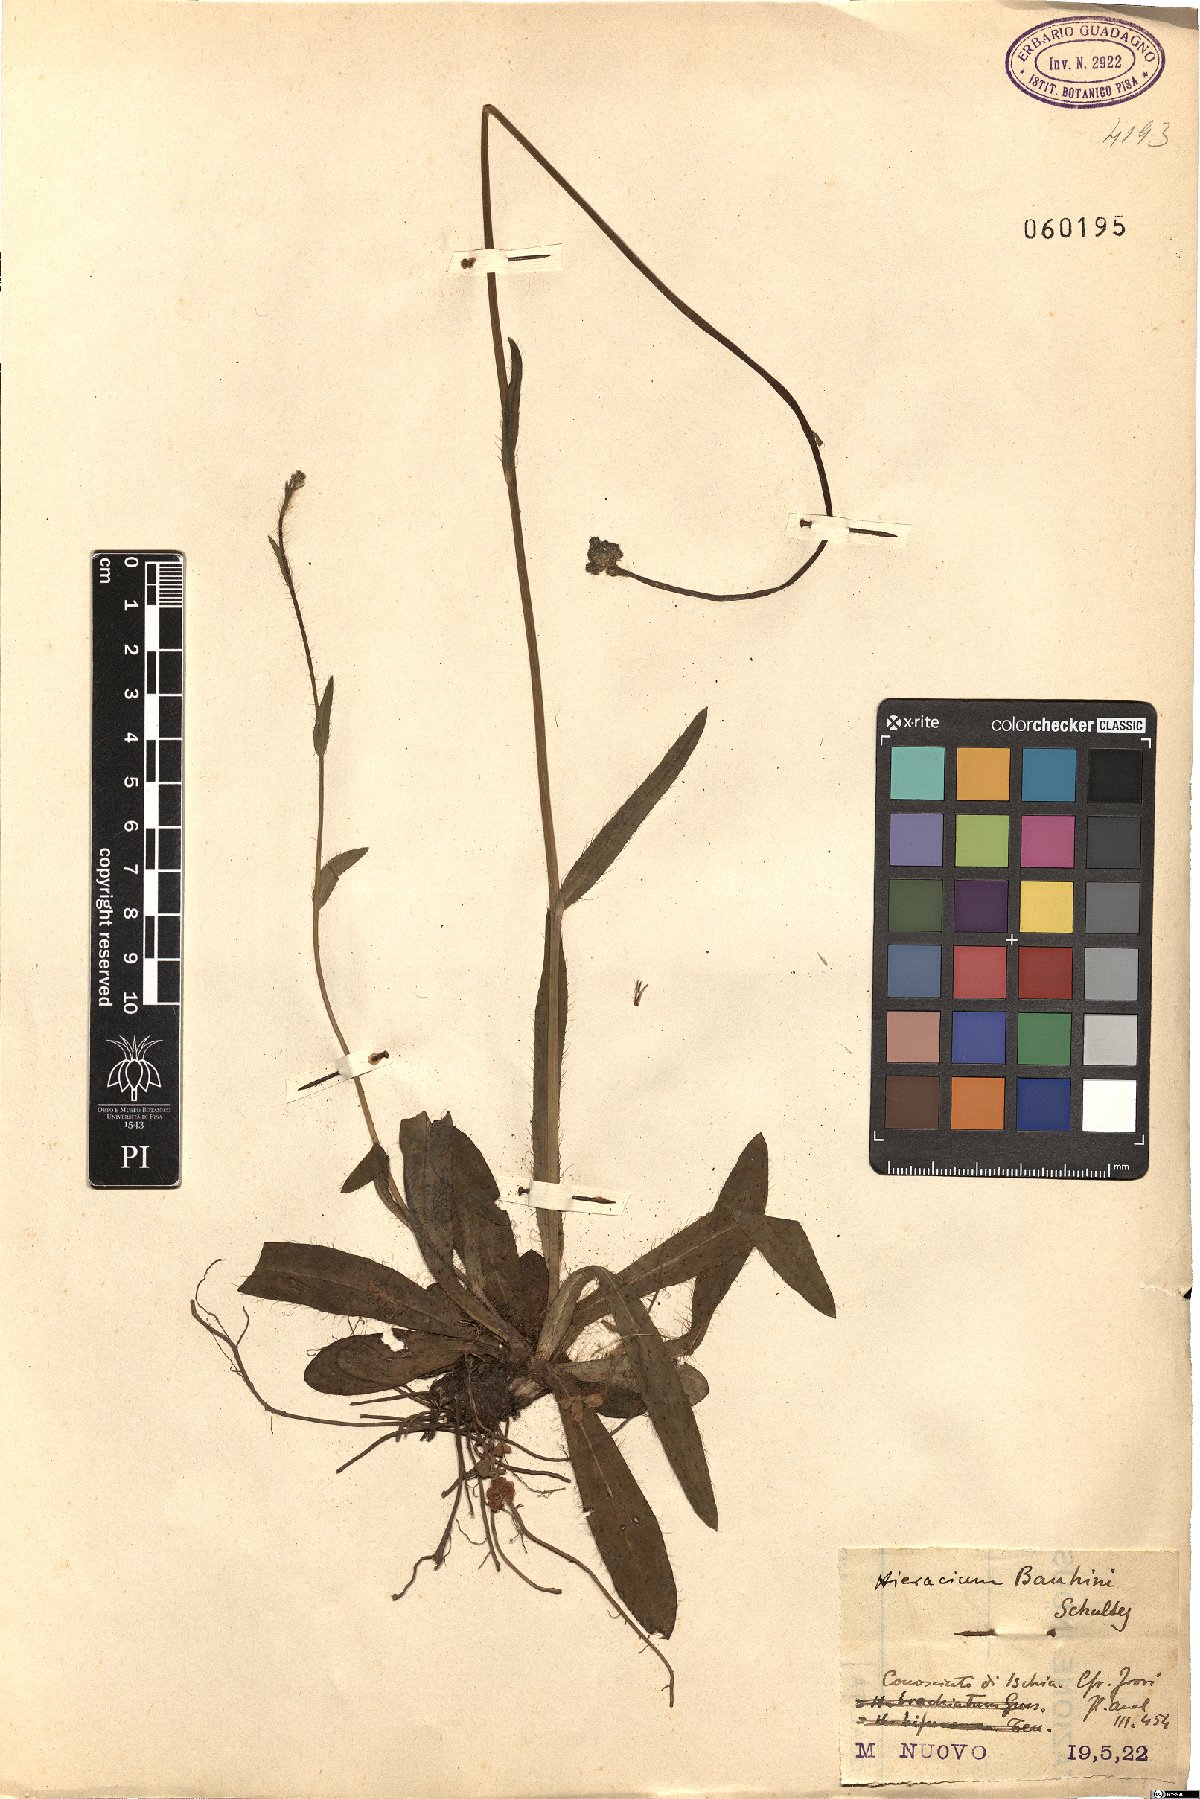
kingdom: Plantae
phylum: Tracheophyta
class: Magnoliopsida
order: Asterales
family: Asteraceae
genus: Pilosella
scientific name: Pilosella bauhini
